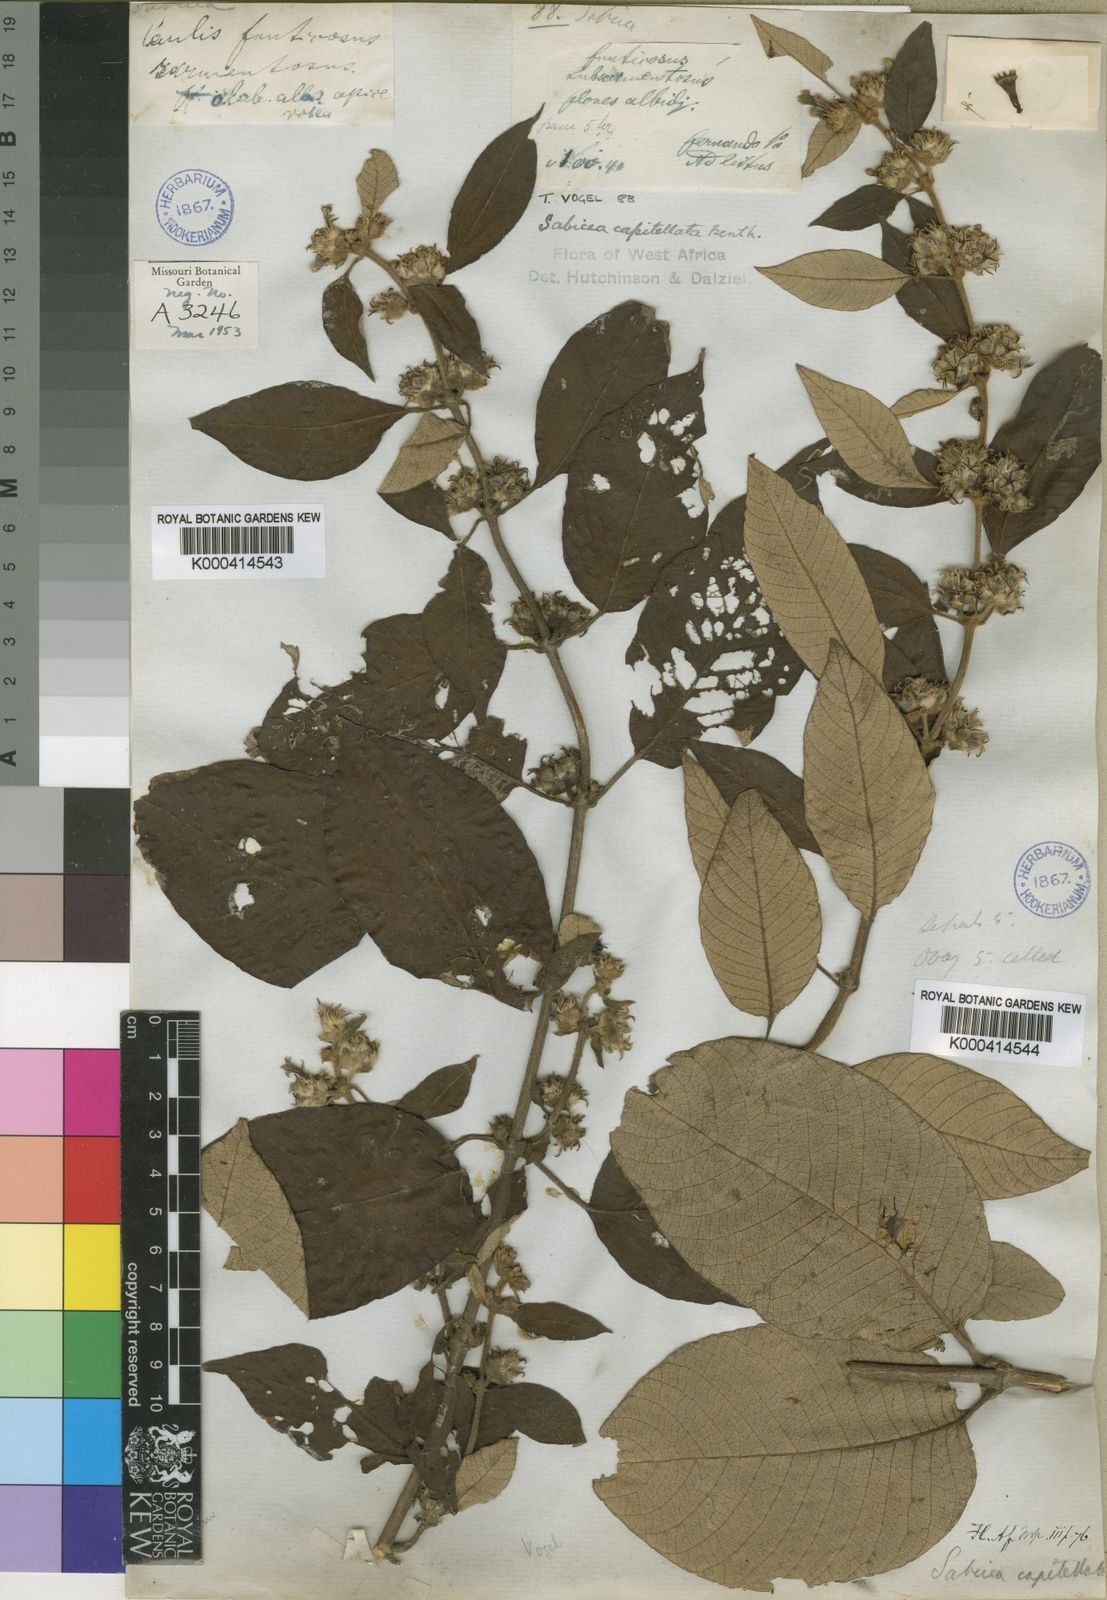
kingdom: Plantae
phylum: Tracheophyta
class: Magnoliopsida
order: Gentianales
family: Rubiaceae
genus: Sabicea
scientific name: Sabicea capitellata
